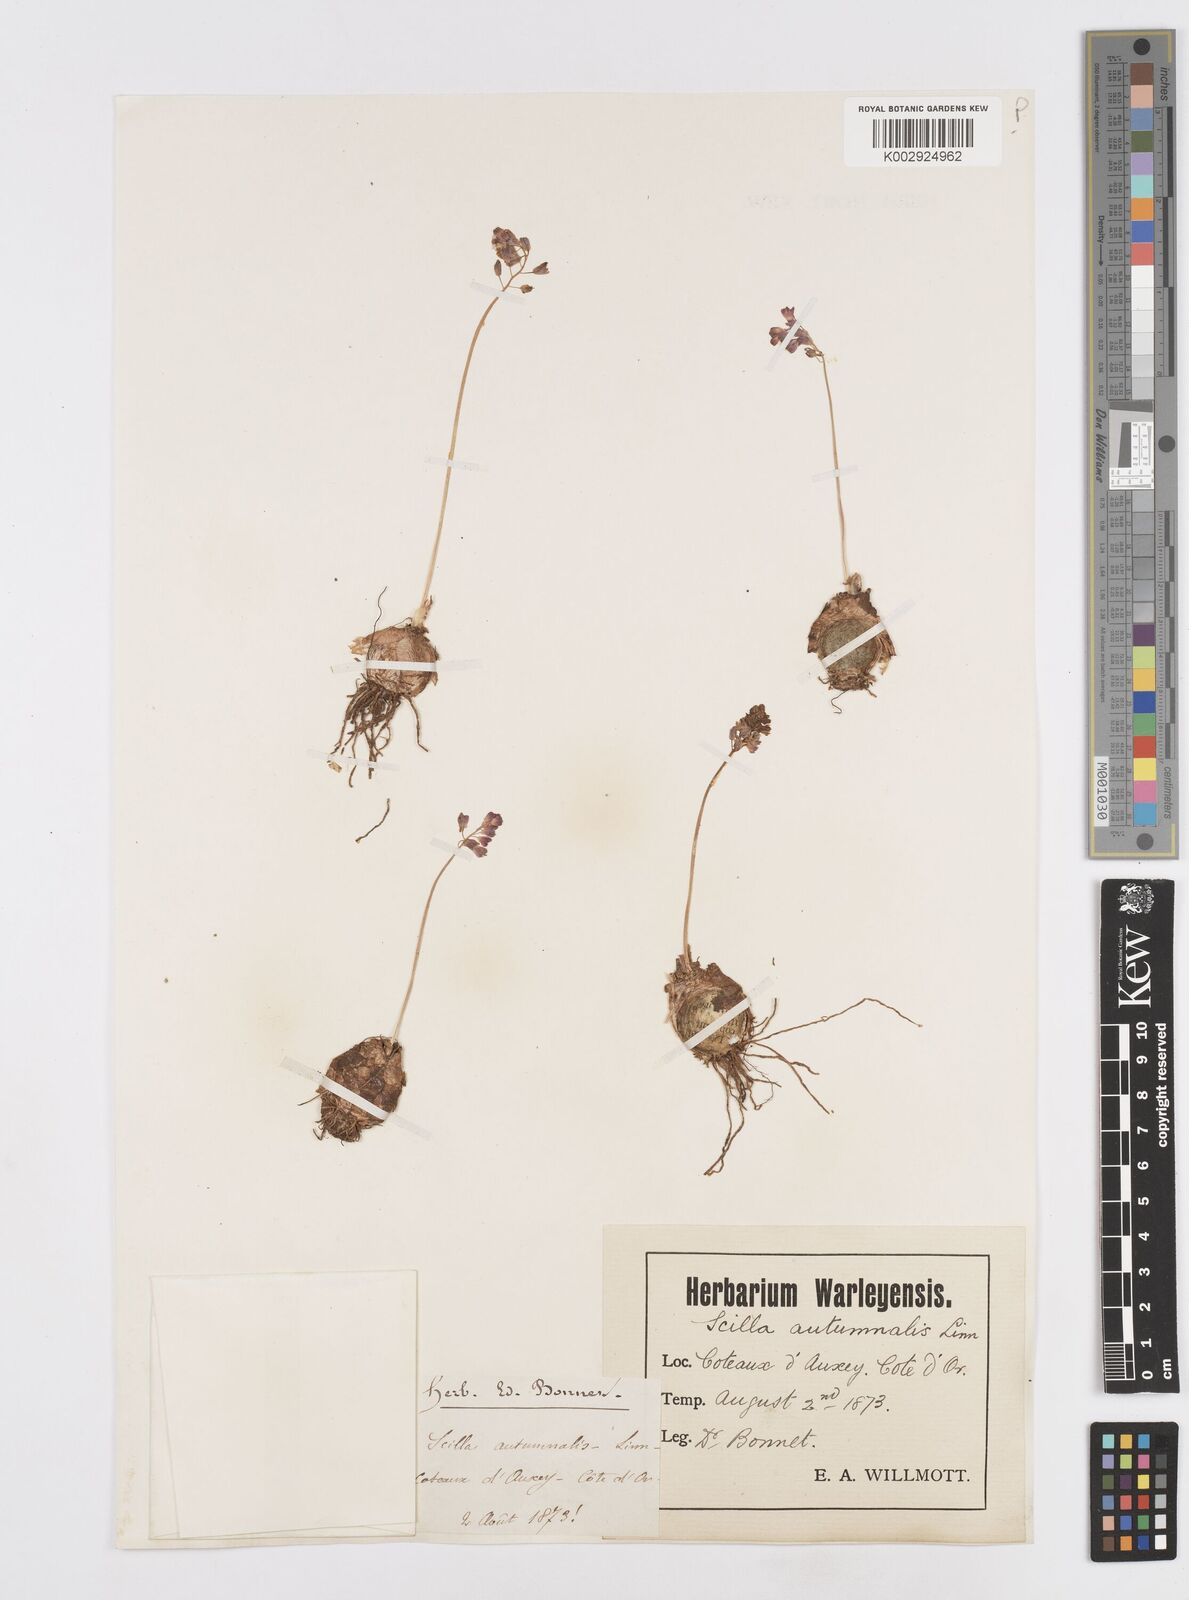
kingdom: Plantae
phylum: Tracheophyta
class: Liliopsida
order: Asparagales
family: Asparagaceae
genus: Prospero
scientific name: Prospero autumnale
